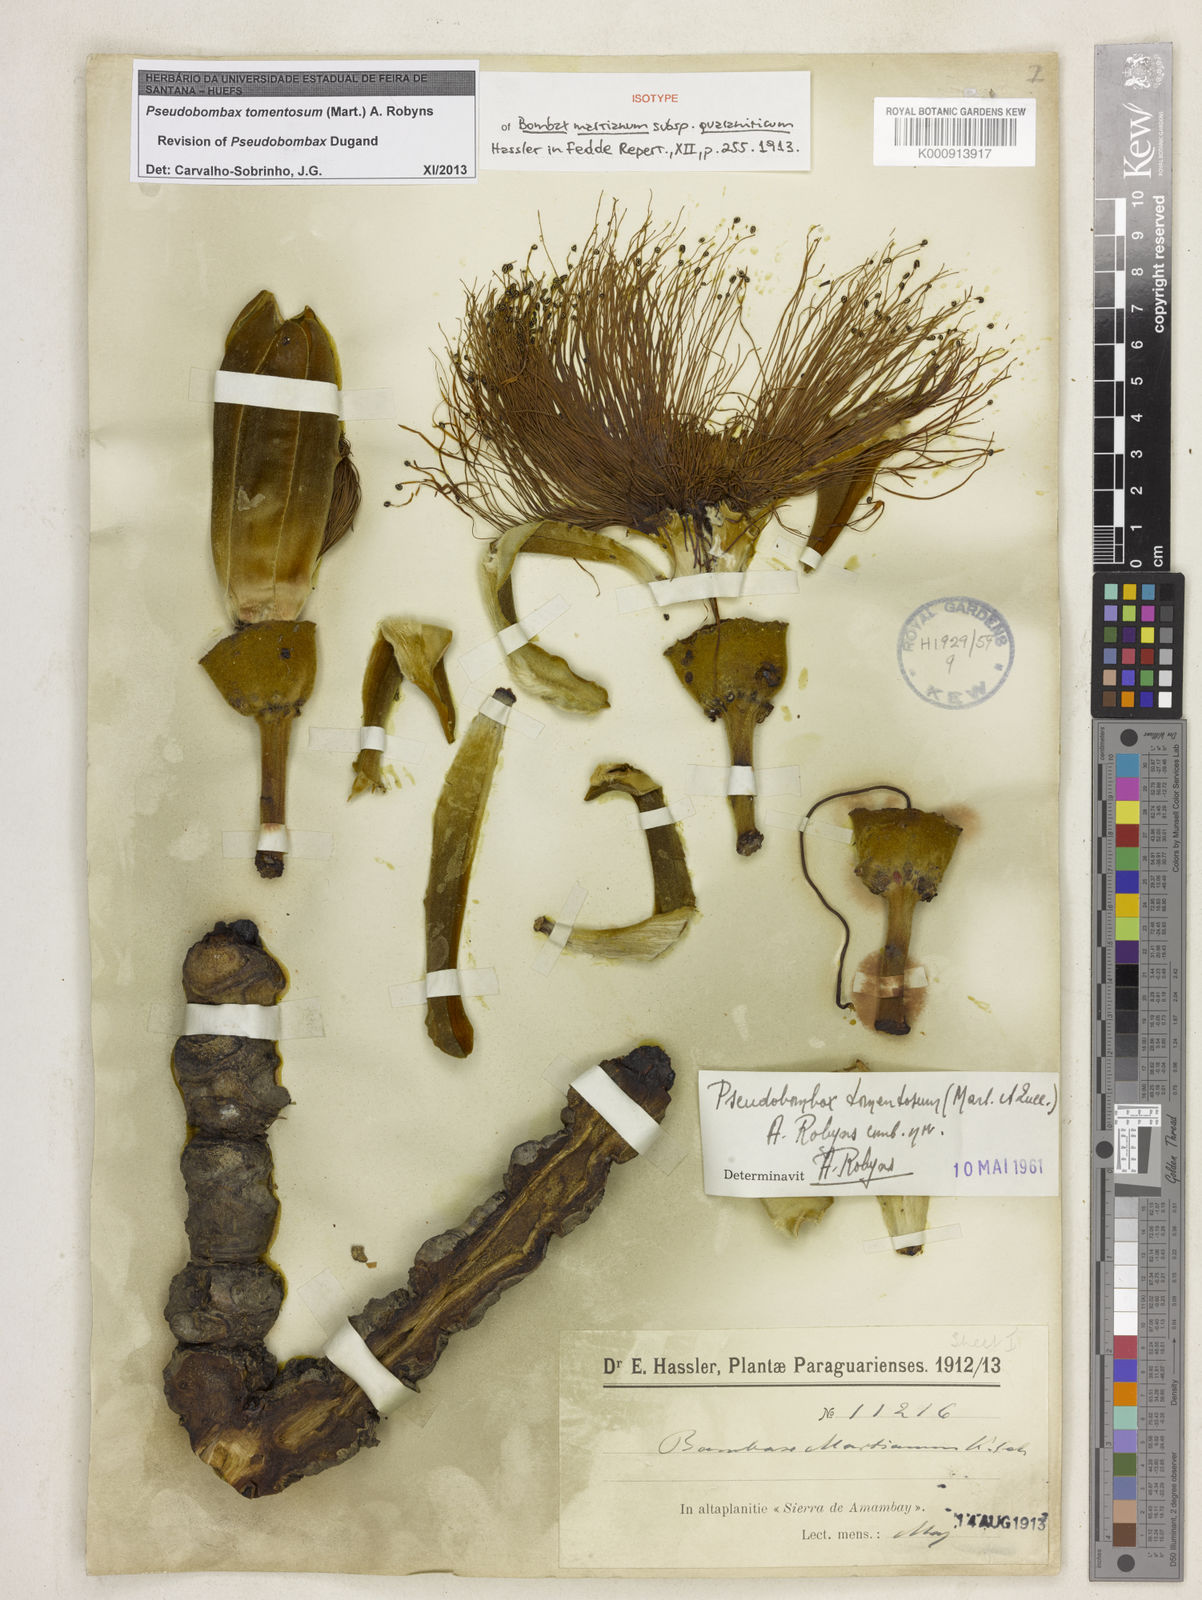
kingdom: Plantae
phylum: Tracheophyta
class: Magnoliopsida
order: Malvales
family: Malvaceae
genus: Pseudobombax
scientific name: Pseudobombax tomentosum
